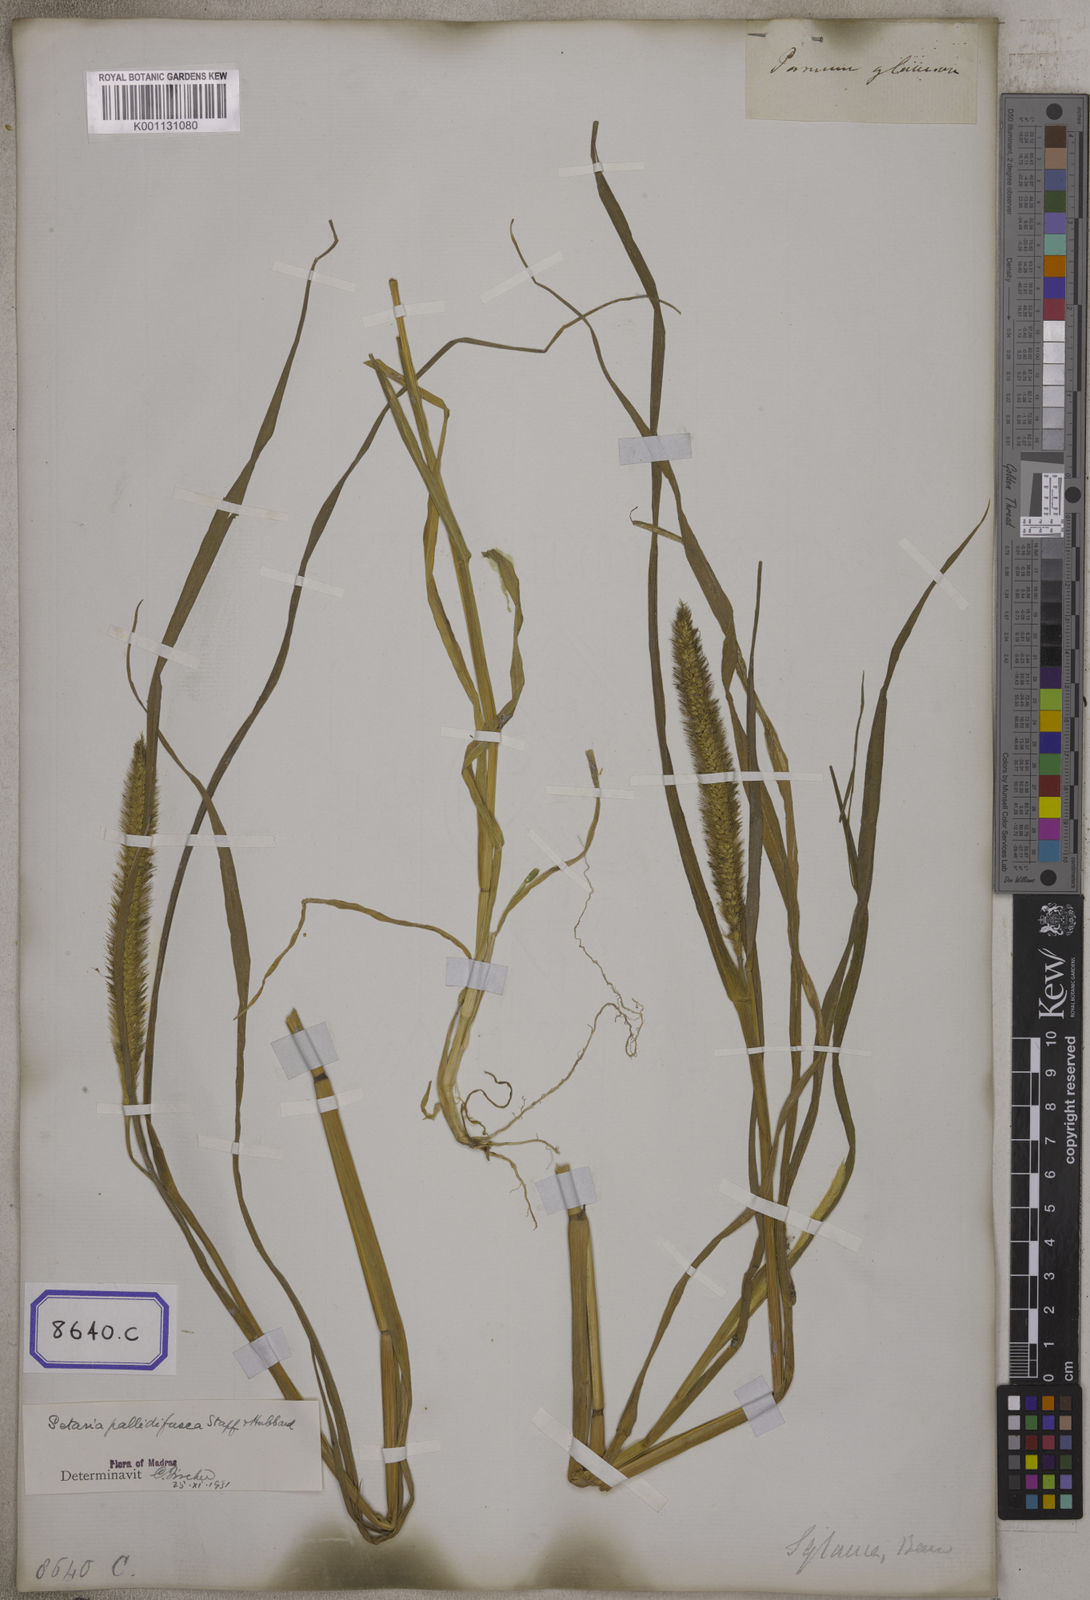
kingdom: Plantae
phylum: Tracheophyta
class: Liliopsida
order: Poales
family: Poaceae
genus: Setaria
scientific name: Setaria pumila
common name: Yellow bristle-grass
